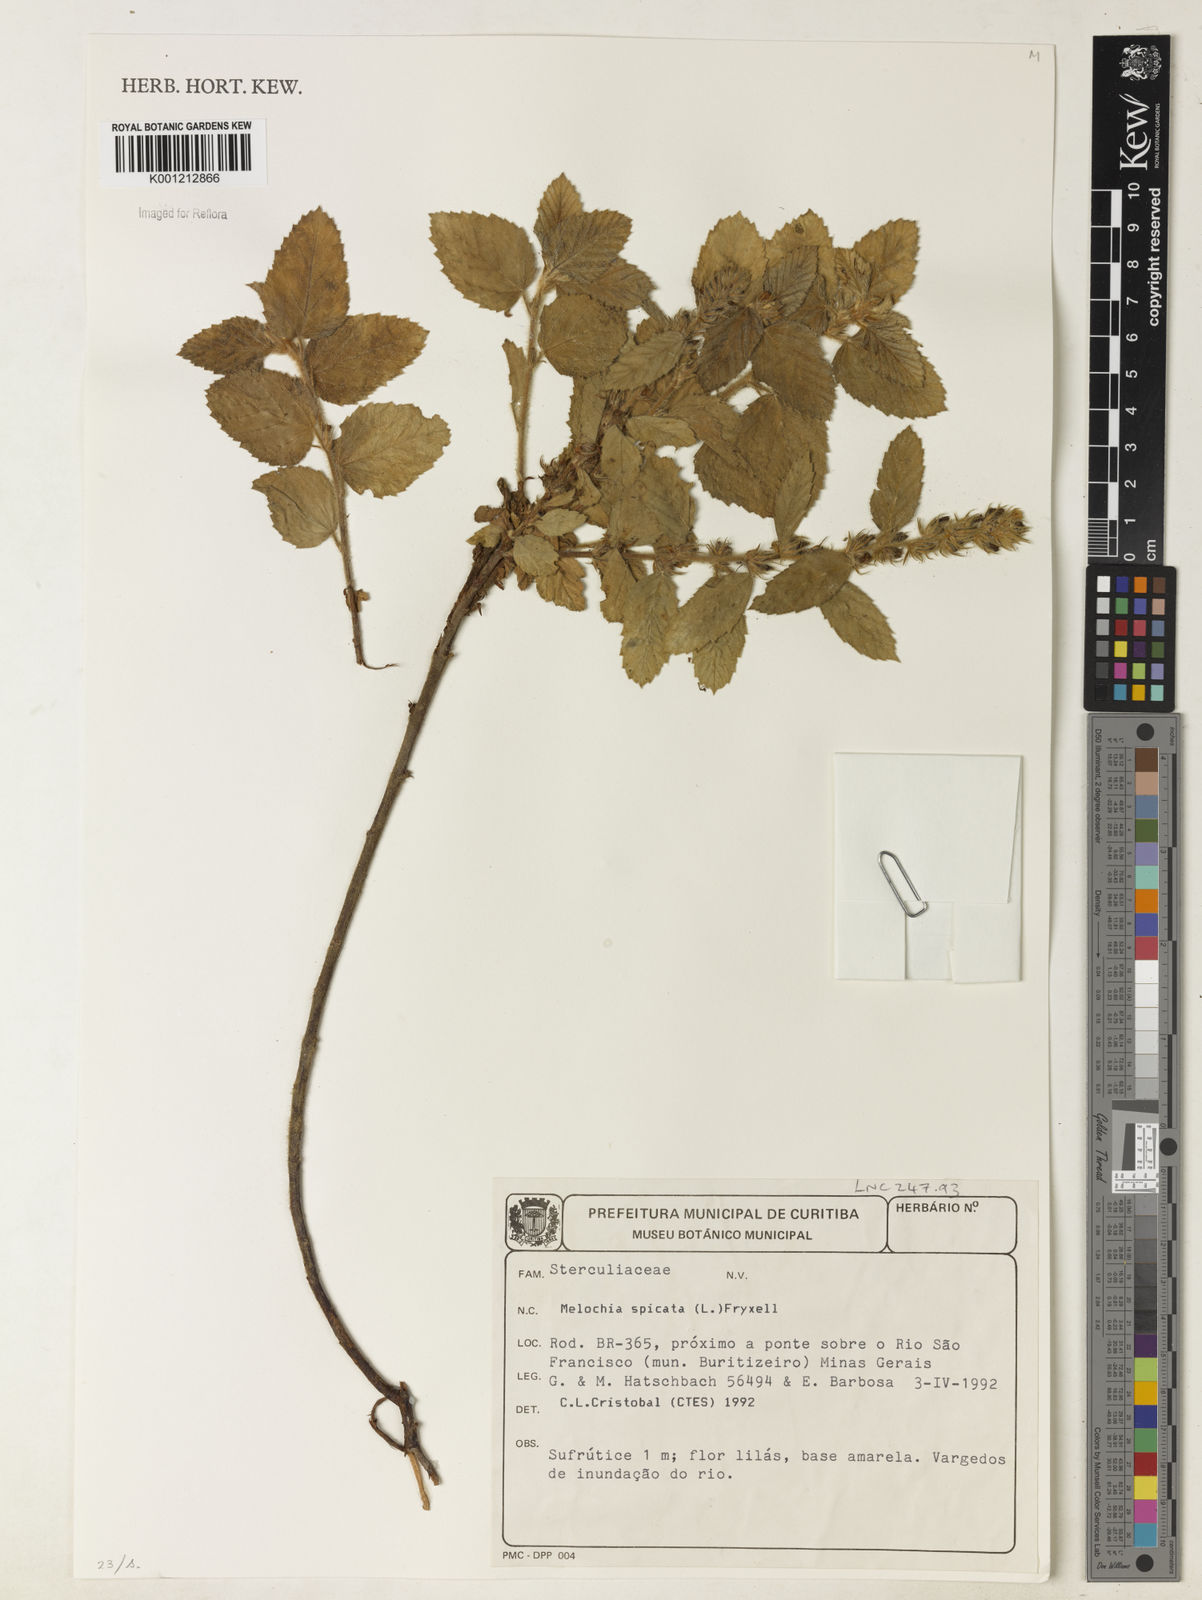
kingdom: Plantae
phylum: Tracheophyta
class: Magnoliopsida
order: Malvales
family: Malvaceae
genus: Melochia
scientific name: Melochia spicata
